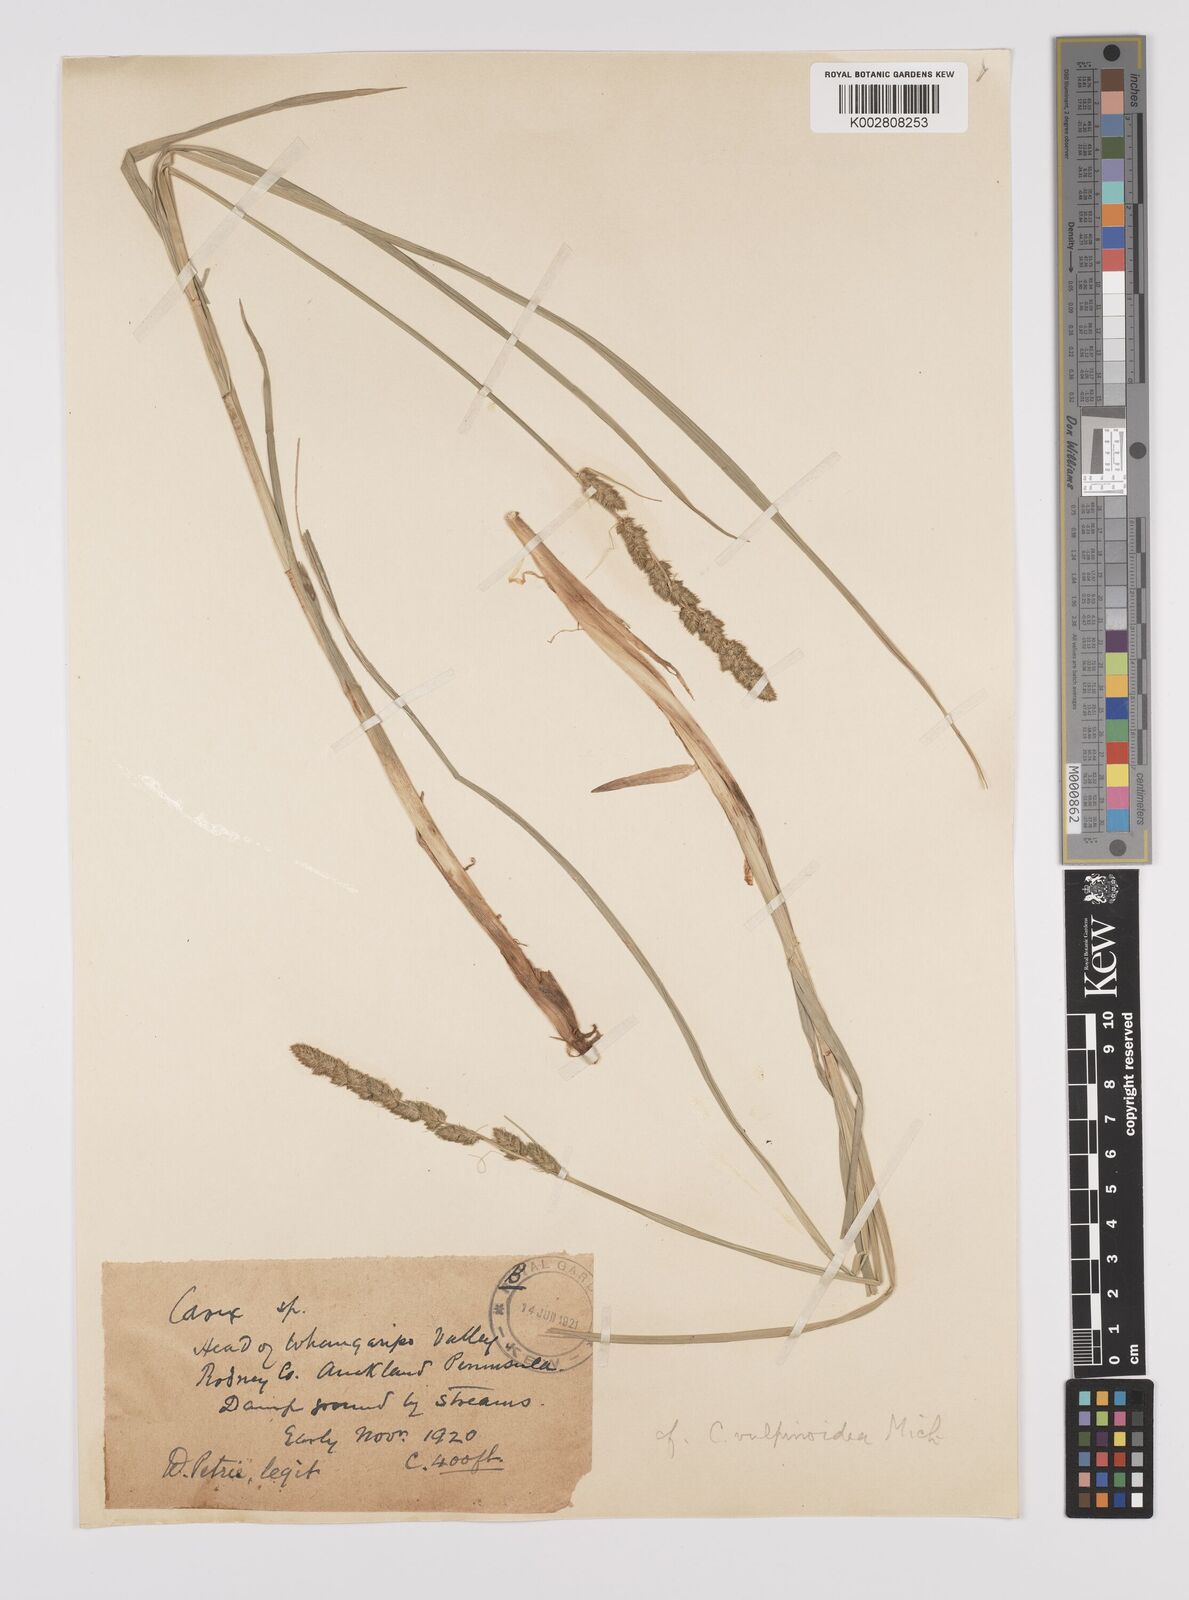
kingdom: Plantae
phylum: Tracheophyta
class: Liliopsida
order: Poales
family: Cyperaceae
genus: Carex
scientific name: Carex vulpinoidea
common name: American fox-sedge
